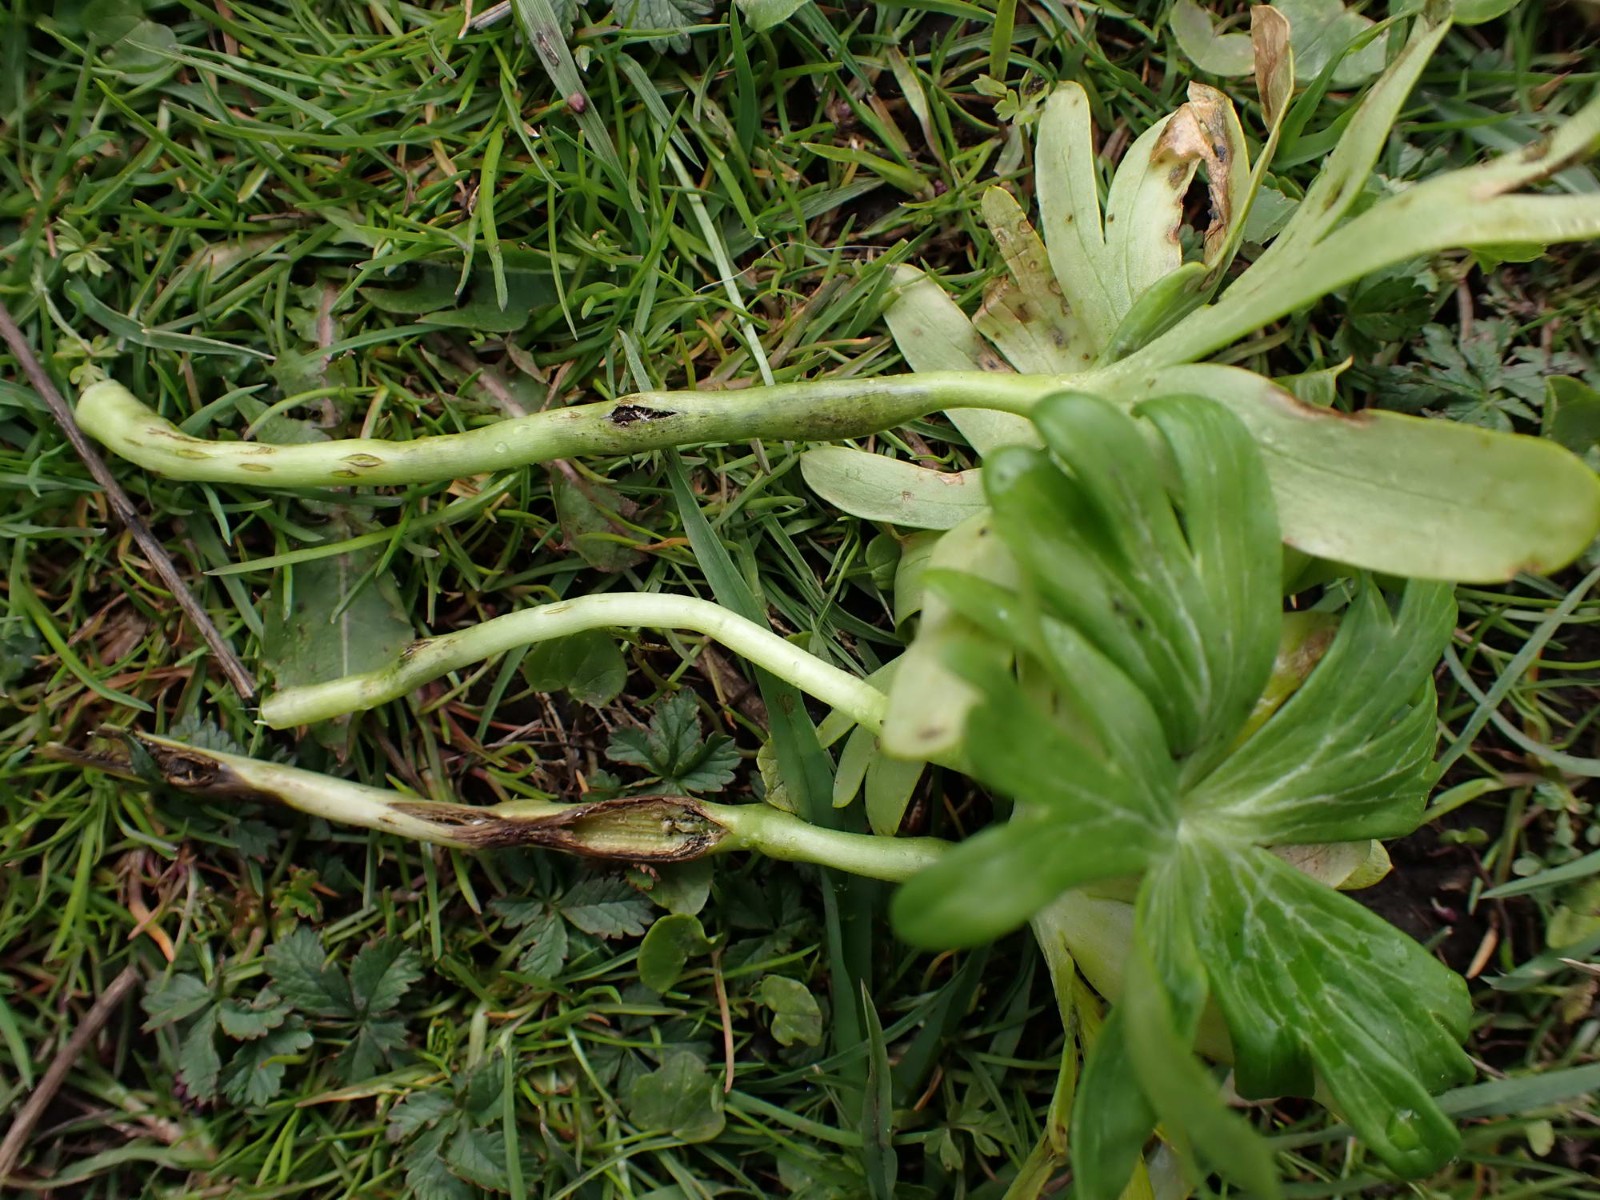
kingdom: Fungi
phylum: Basidiomycota
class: Ustilaginomycetes
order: Urocystidales
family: Urocystidaceae
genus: Urocystis
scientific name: Urocystis eranthidis
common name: erantis-brand
